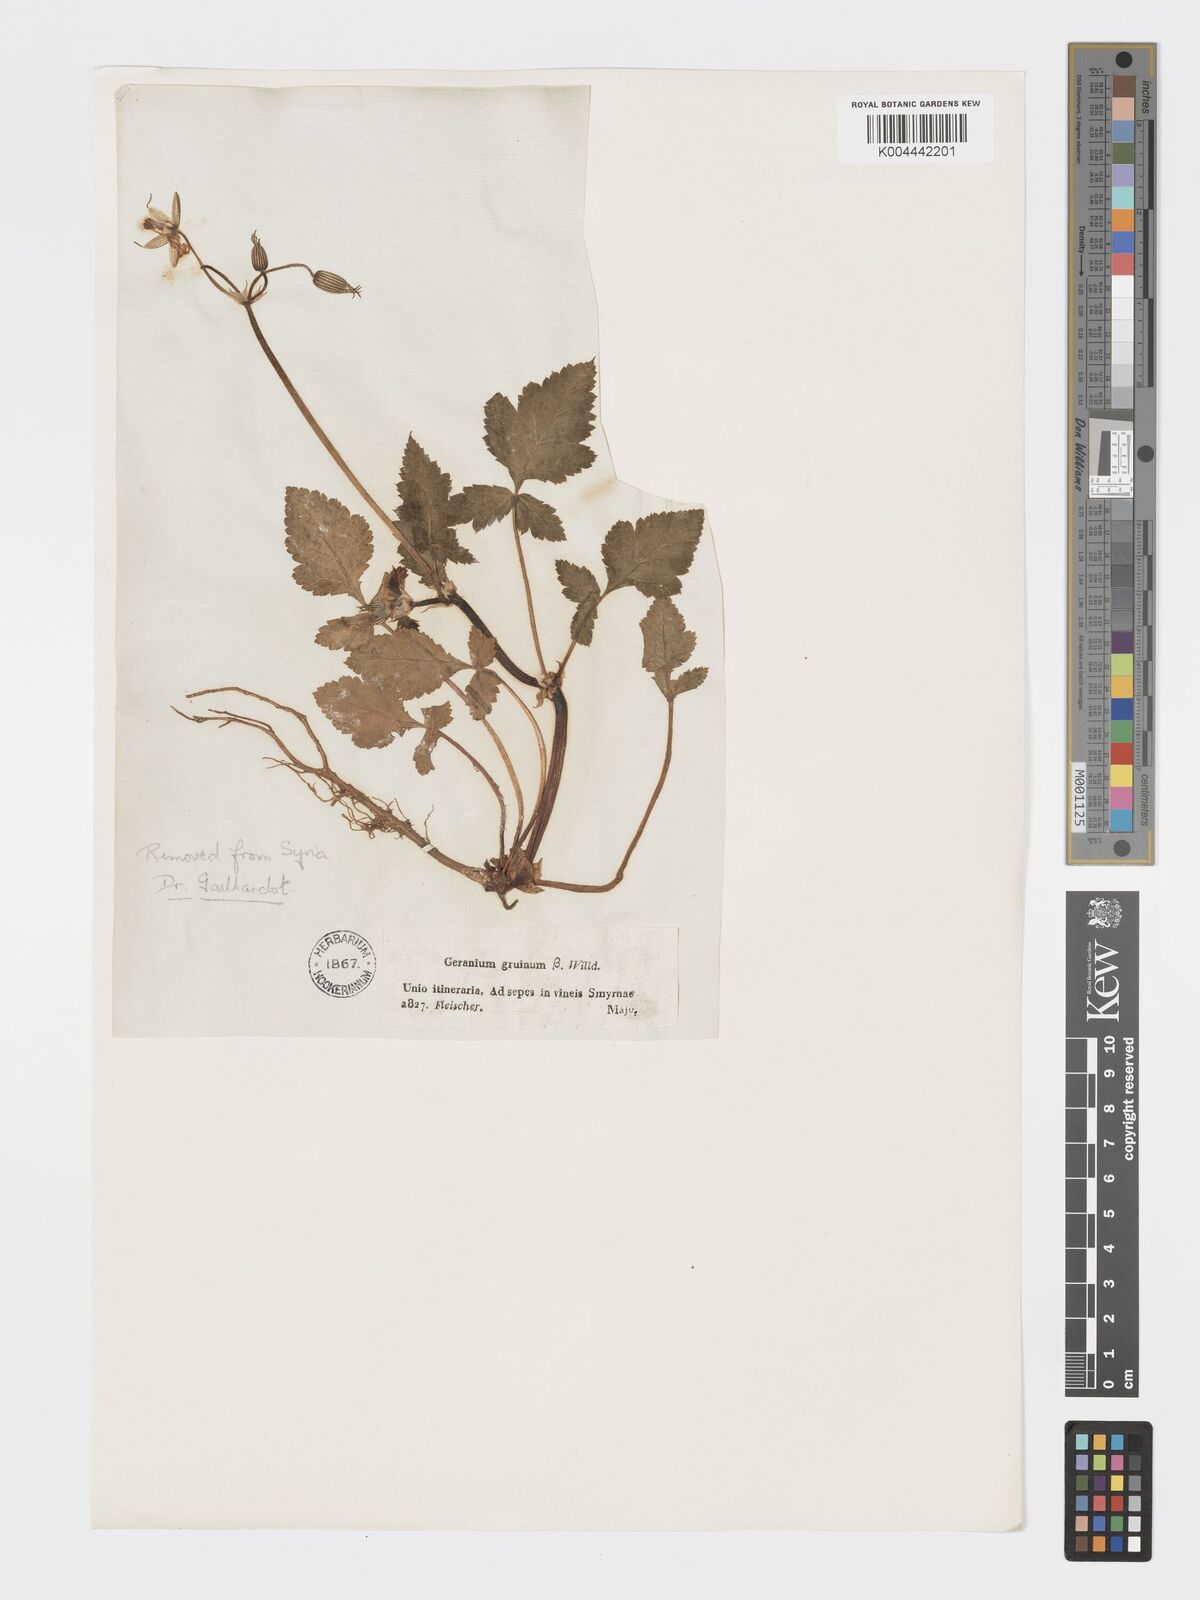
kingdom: Plantae
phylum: Tracheophyta
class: Magnoliopsida
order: Geraniales
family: Geraniaceae
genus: Erodium
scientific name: Erodium gruinum
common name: Iranian stork's bill
